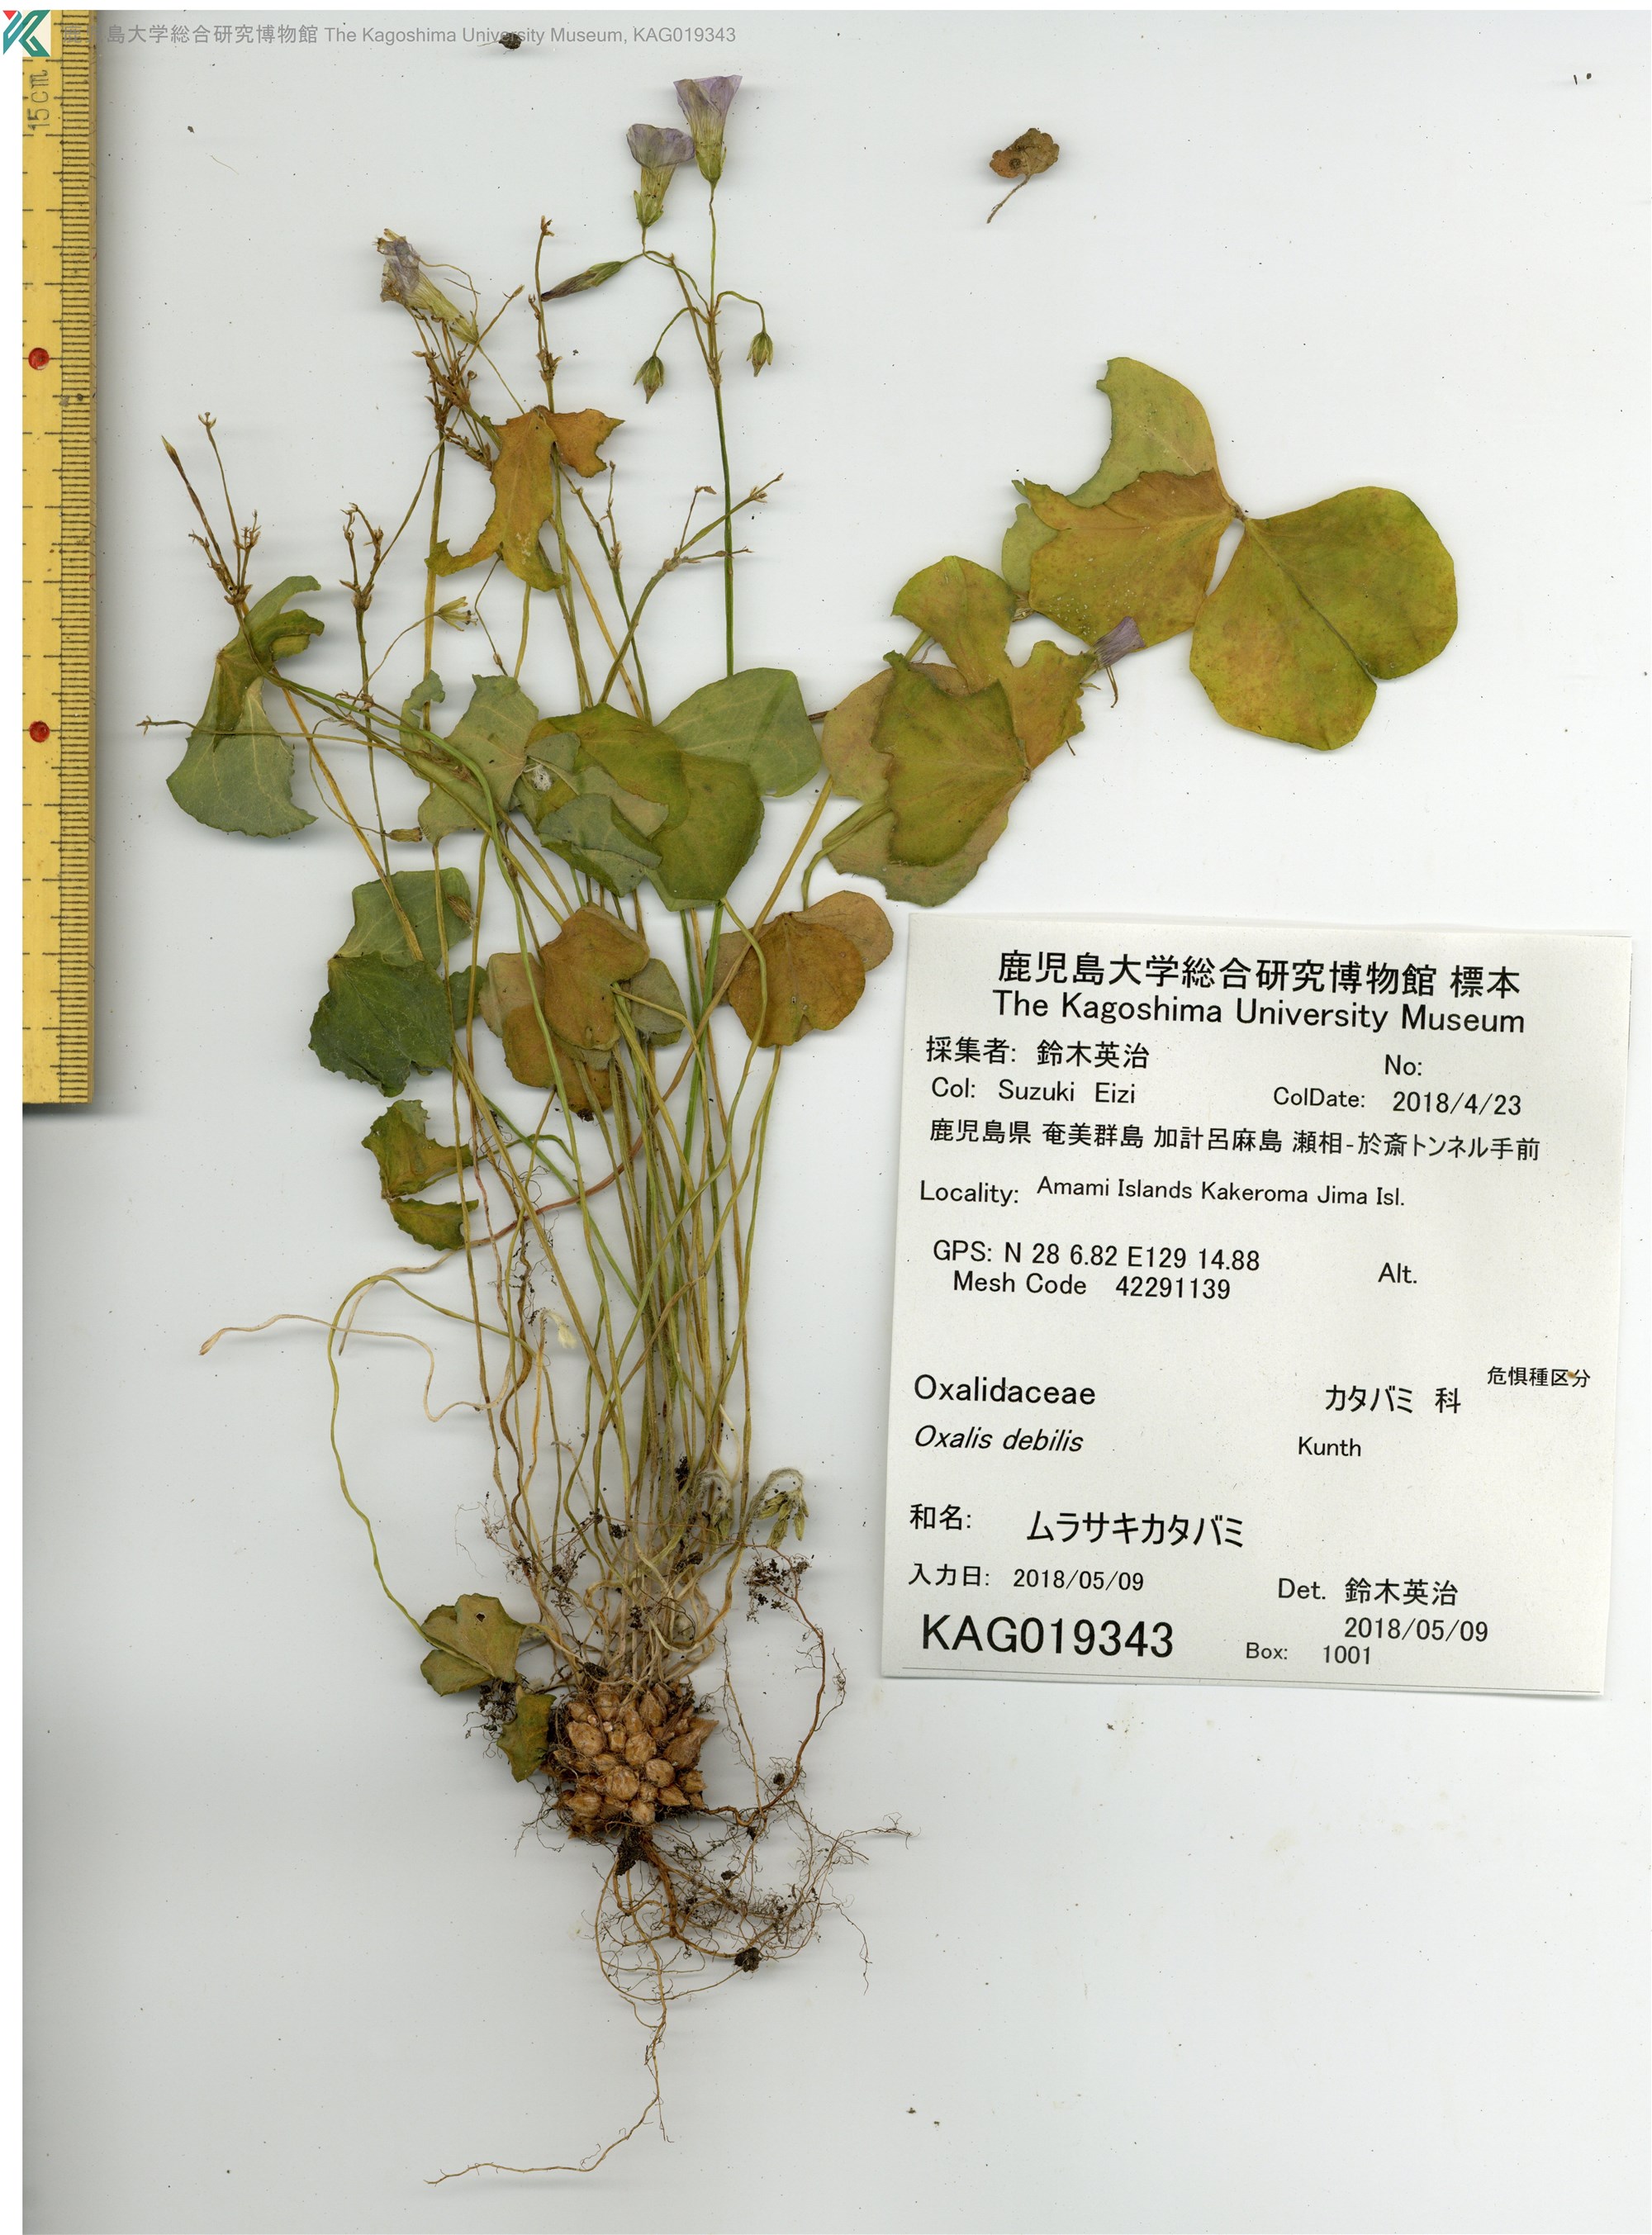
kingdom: Plantae
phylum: Tracheophyta
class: Magnoliopsida
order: Oxalidales
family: Oxalidaceae
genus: Oxalis
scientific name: Oxalis debilis
